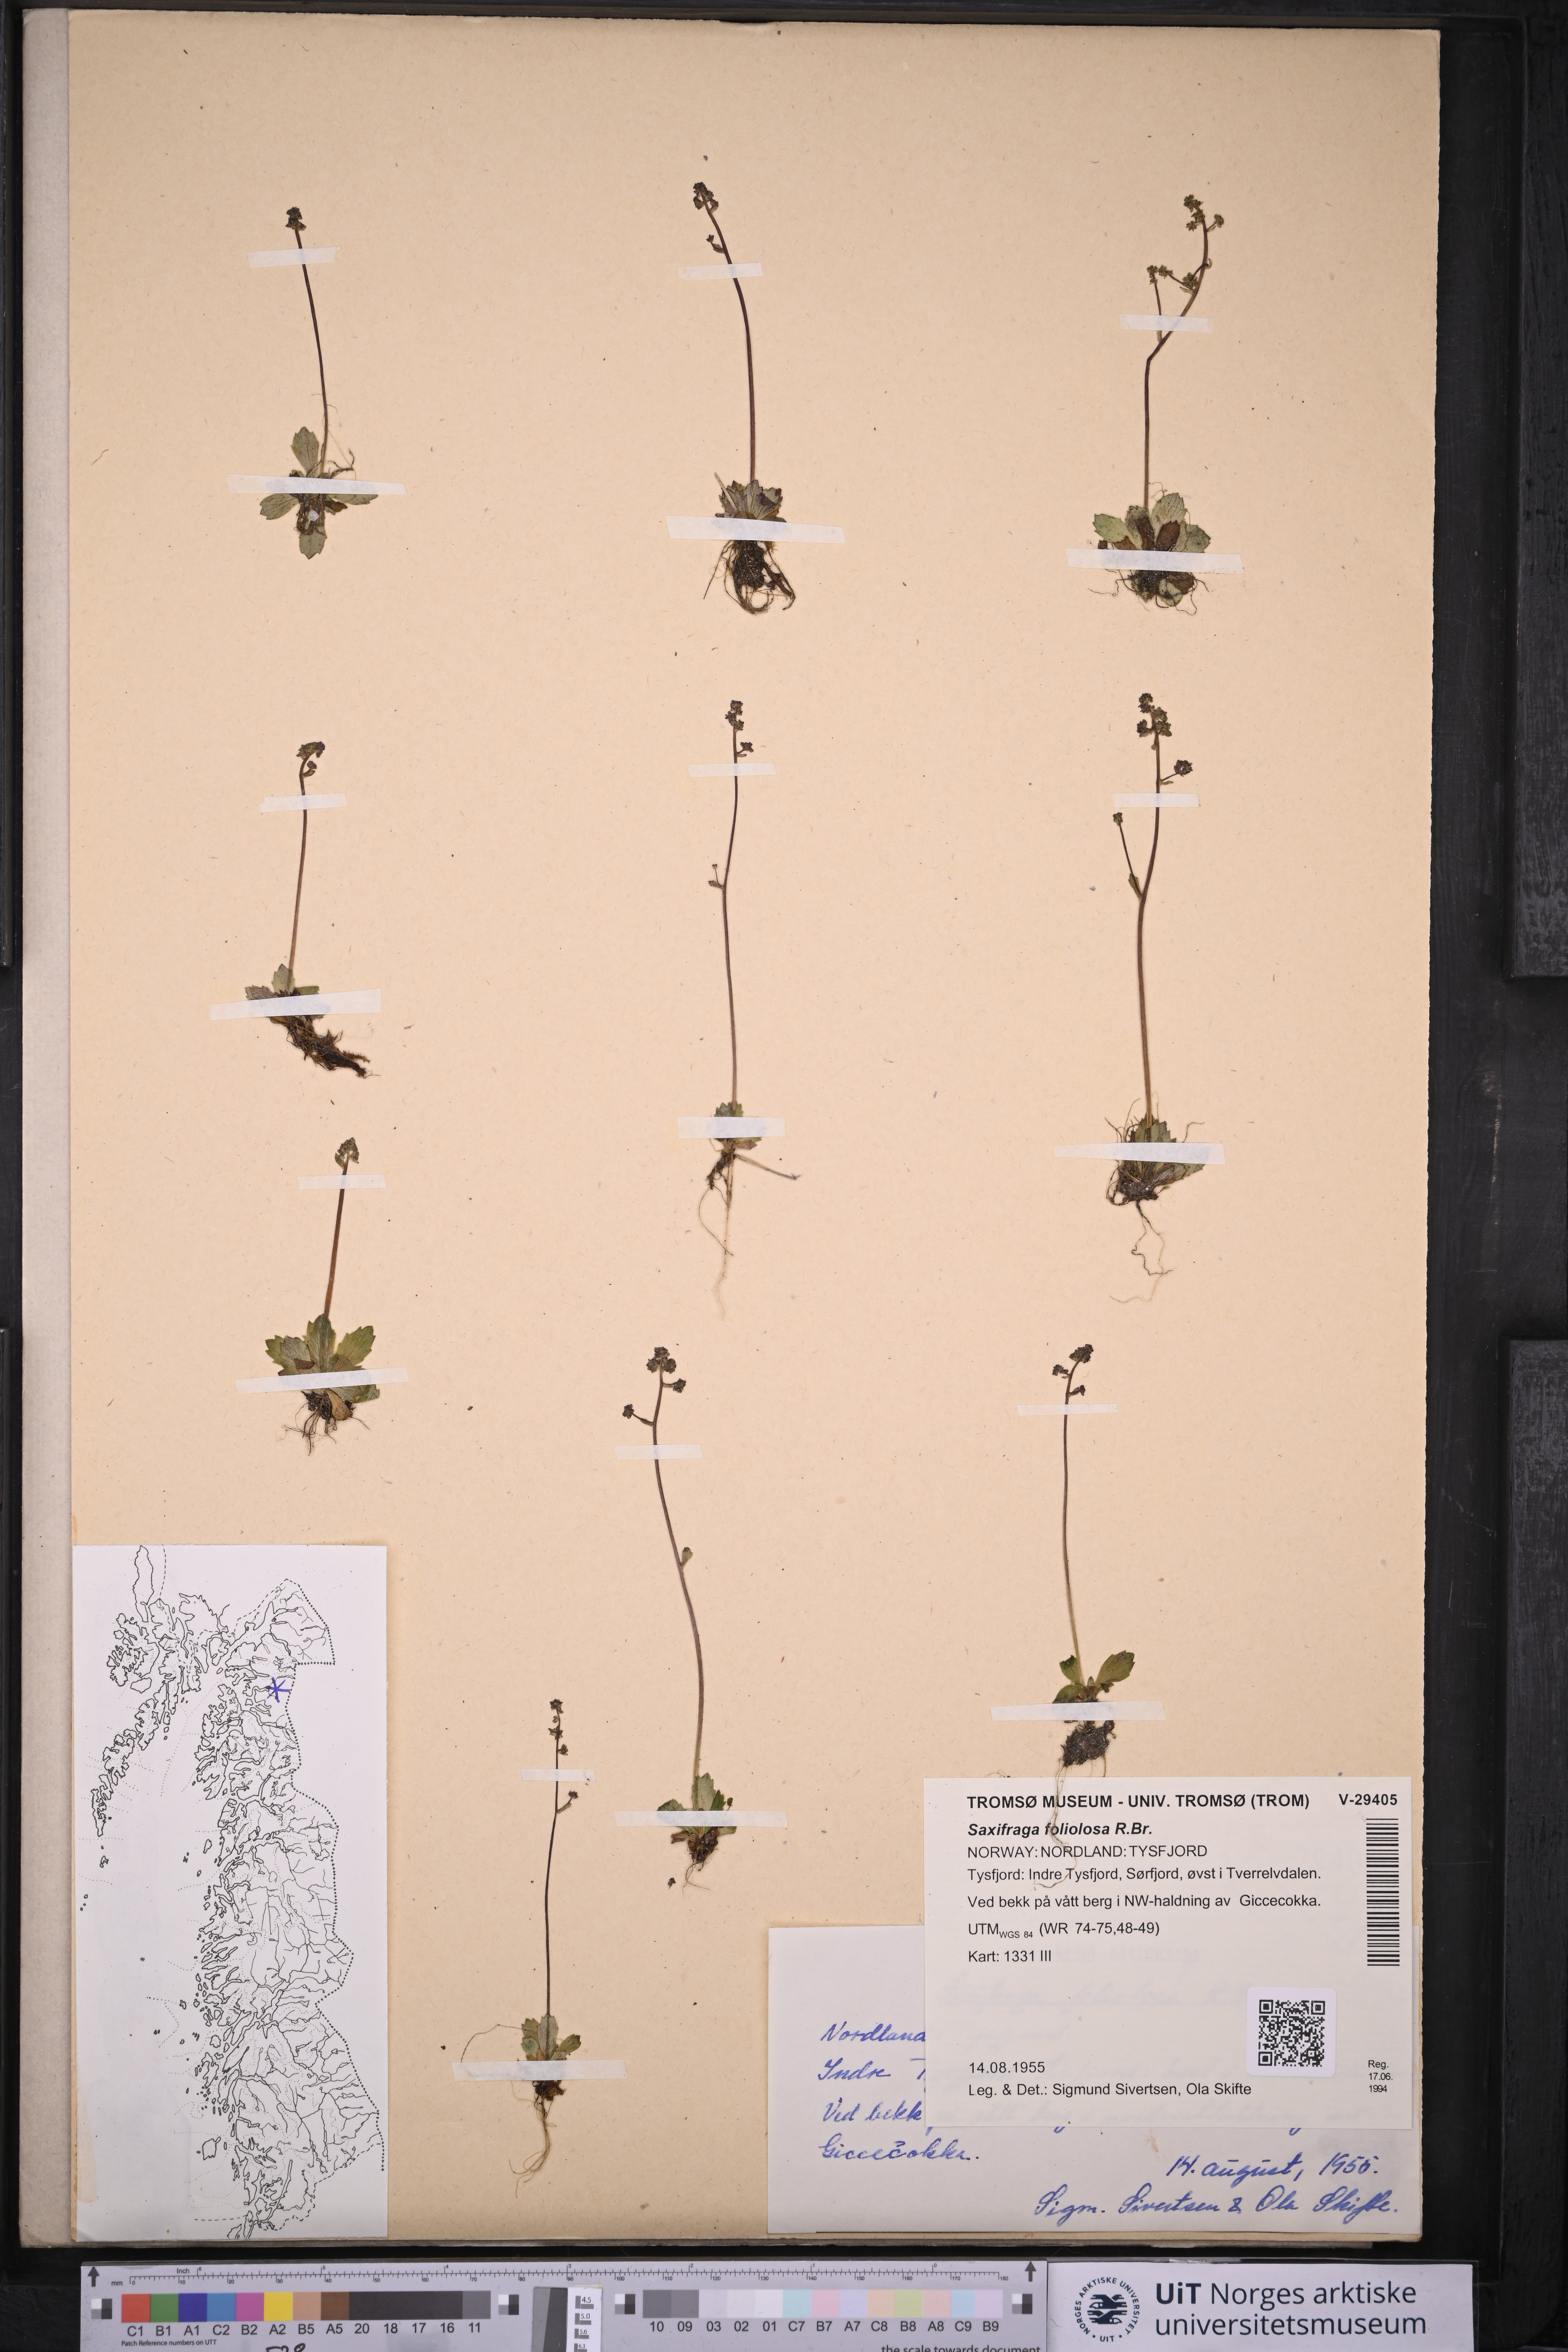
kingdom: Plantae
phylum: Tracheophyta
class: Magnoliopsida
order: Saxifragales
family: Saxifragaceae
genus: Micranthes
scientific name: Micranthes foliolosa
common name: Leafystem saxifrage
